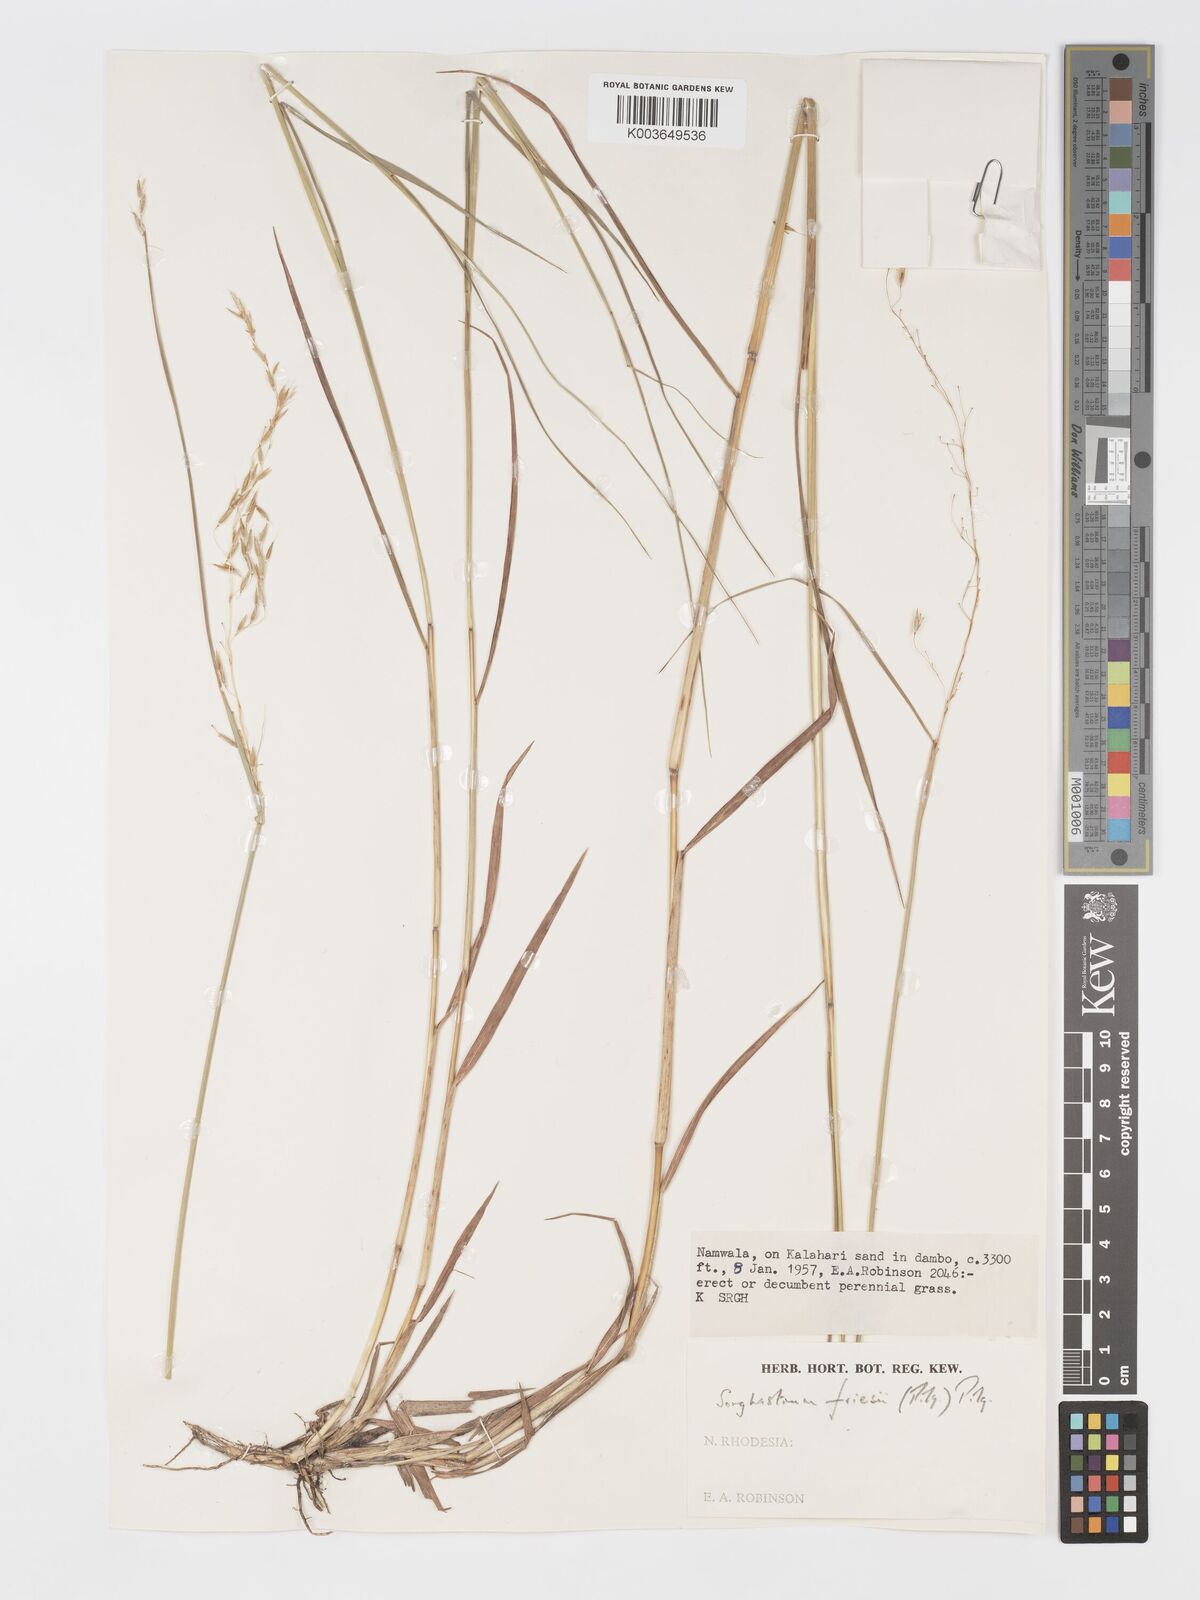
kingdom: Plantae
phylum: Tracheophyta
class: Liliopsida
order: Poales
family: Poaceae
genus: Sorghastrum
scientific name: Sorghastrum nudipes
